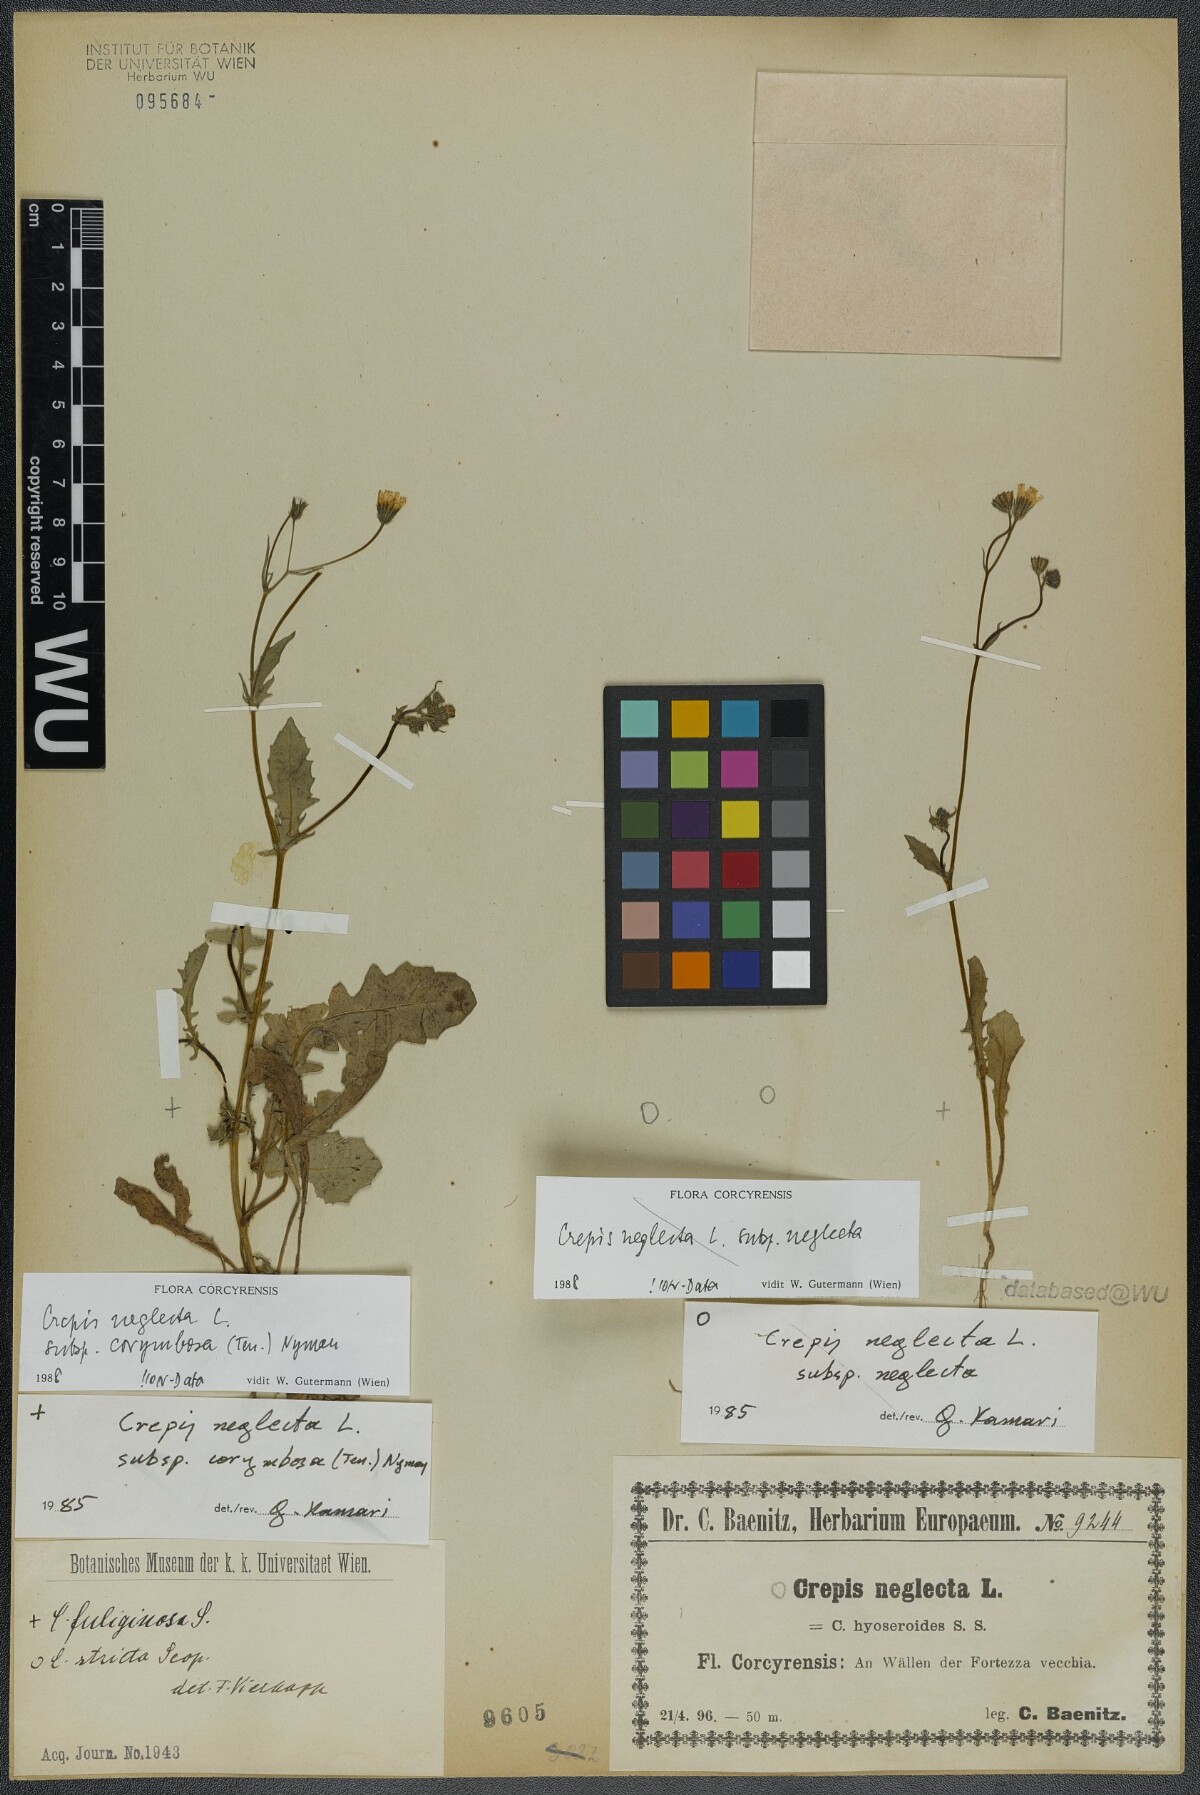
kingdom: Plantae
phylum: Tracheophyta
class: Magnoliopsida
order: Asterales
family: Asteraceae
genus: Crepis
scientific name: Crepis neglecta
